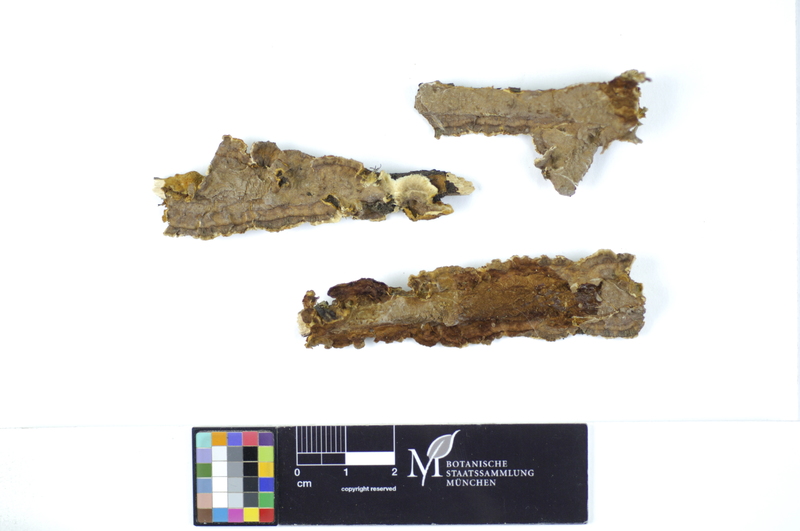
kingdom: Fungi
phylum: Basidiomycota
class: Agaricomycetes
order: Hymenochaetales
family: Hymenochaetaceae
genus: Hydnoporia
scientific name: Hydnoporia tabacina
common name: Willow glue
